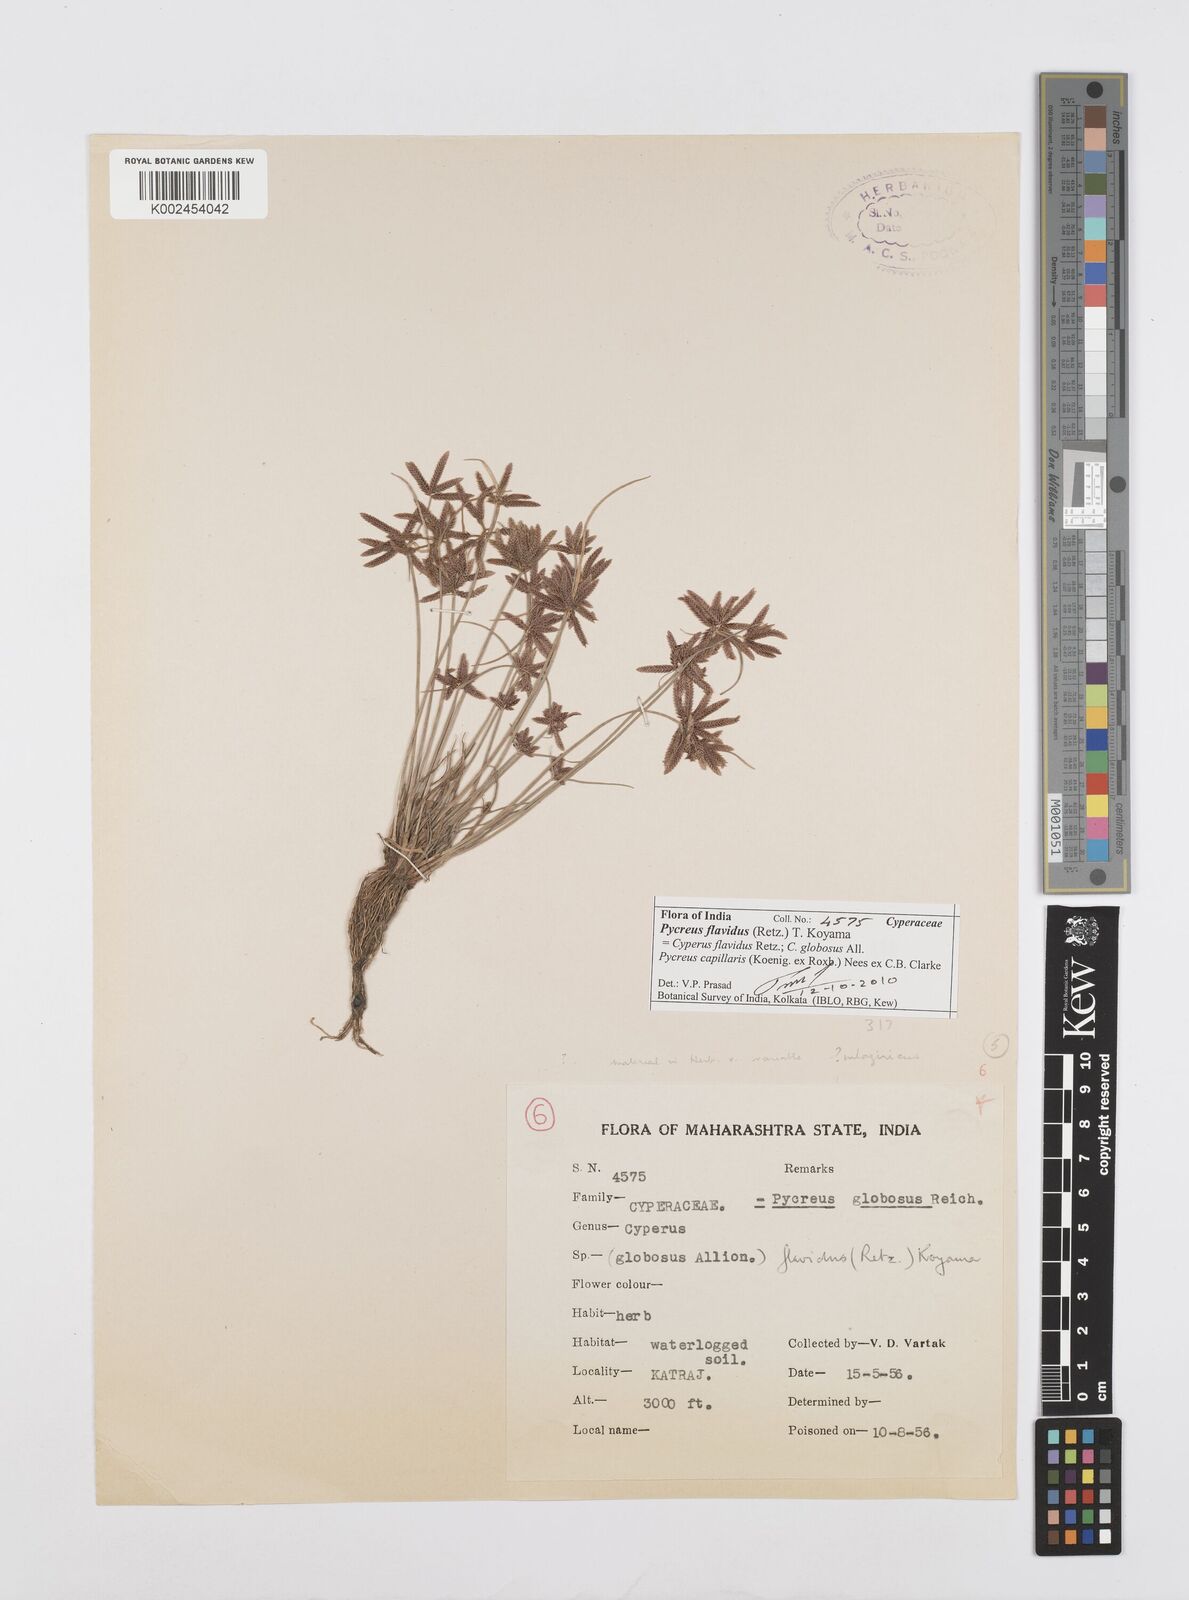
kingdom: Plantae
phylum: Tracheophyta
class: Liliopsida
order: Poales
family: Cyperaceae
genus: Cyperus
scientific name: Cyperus flavidus
